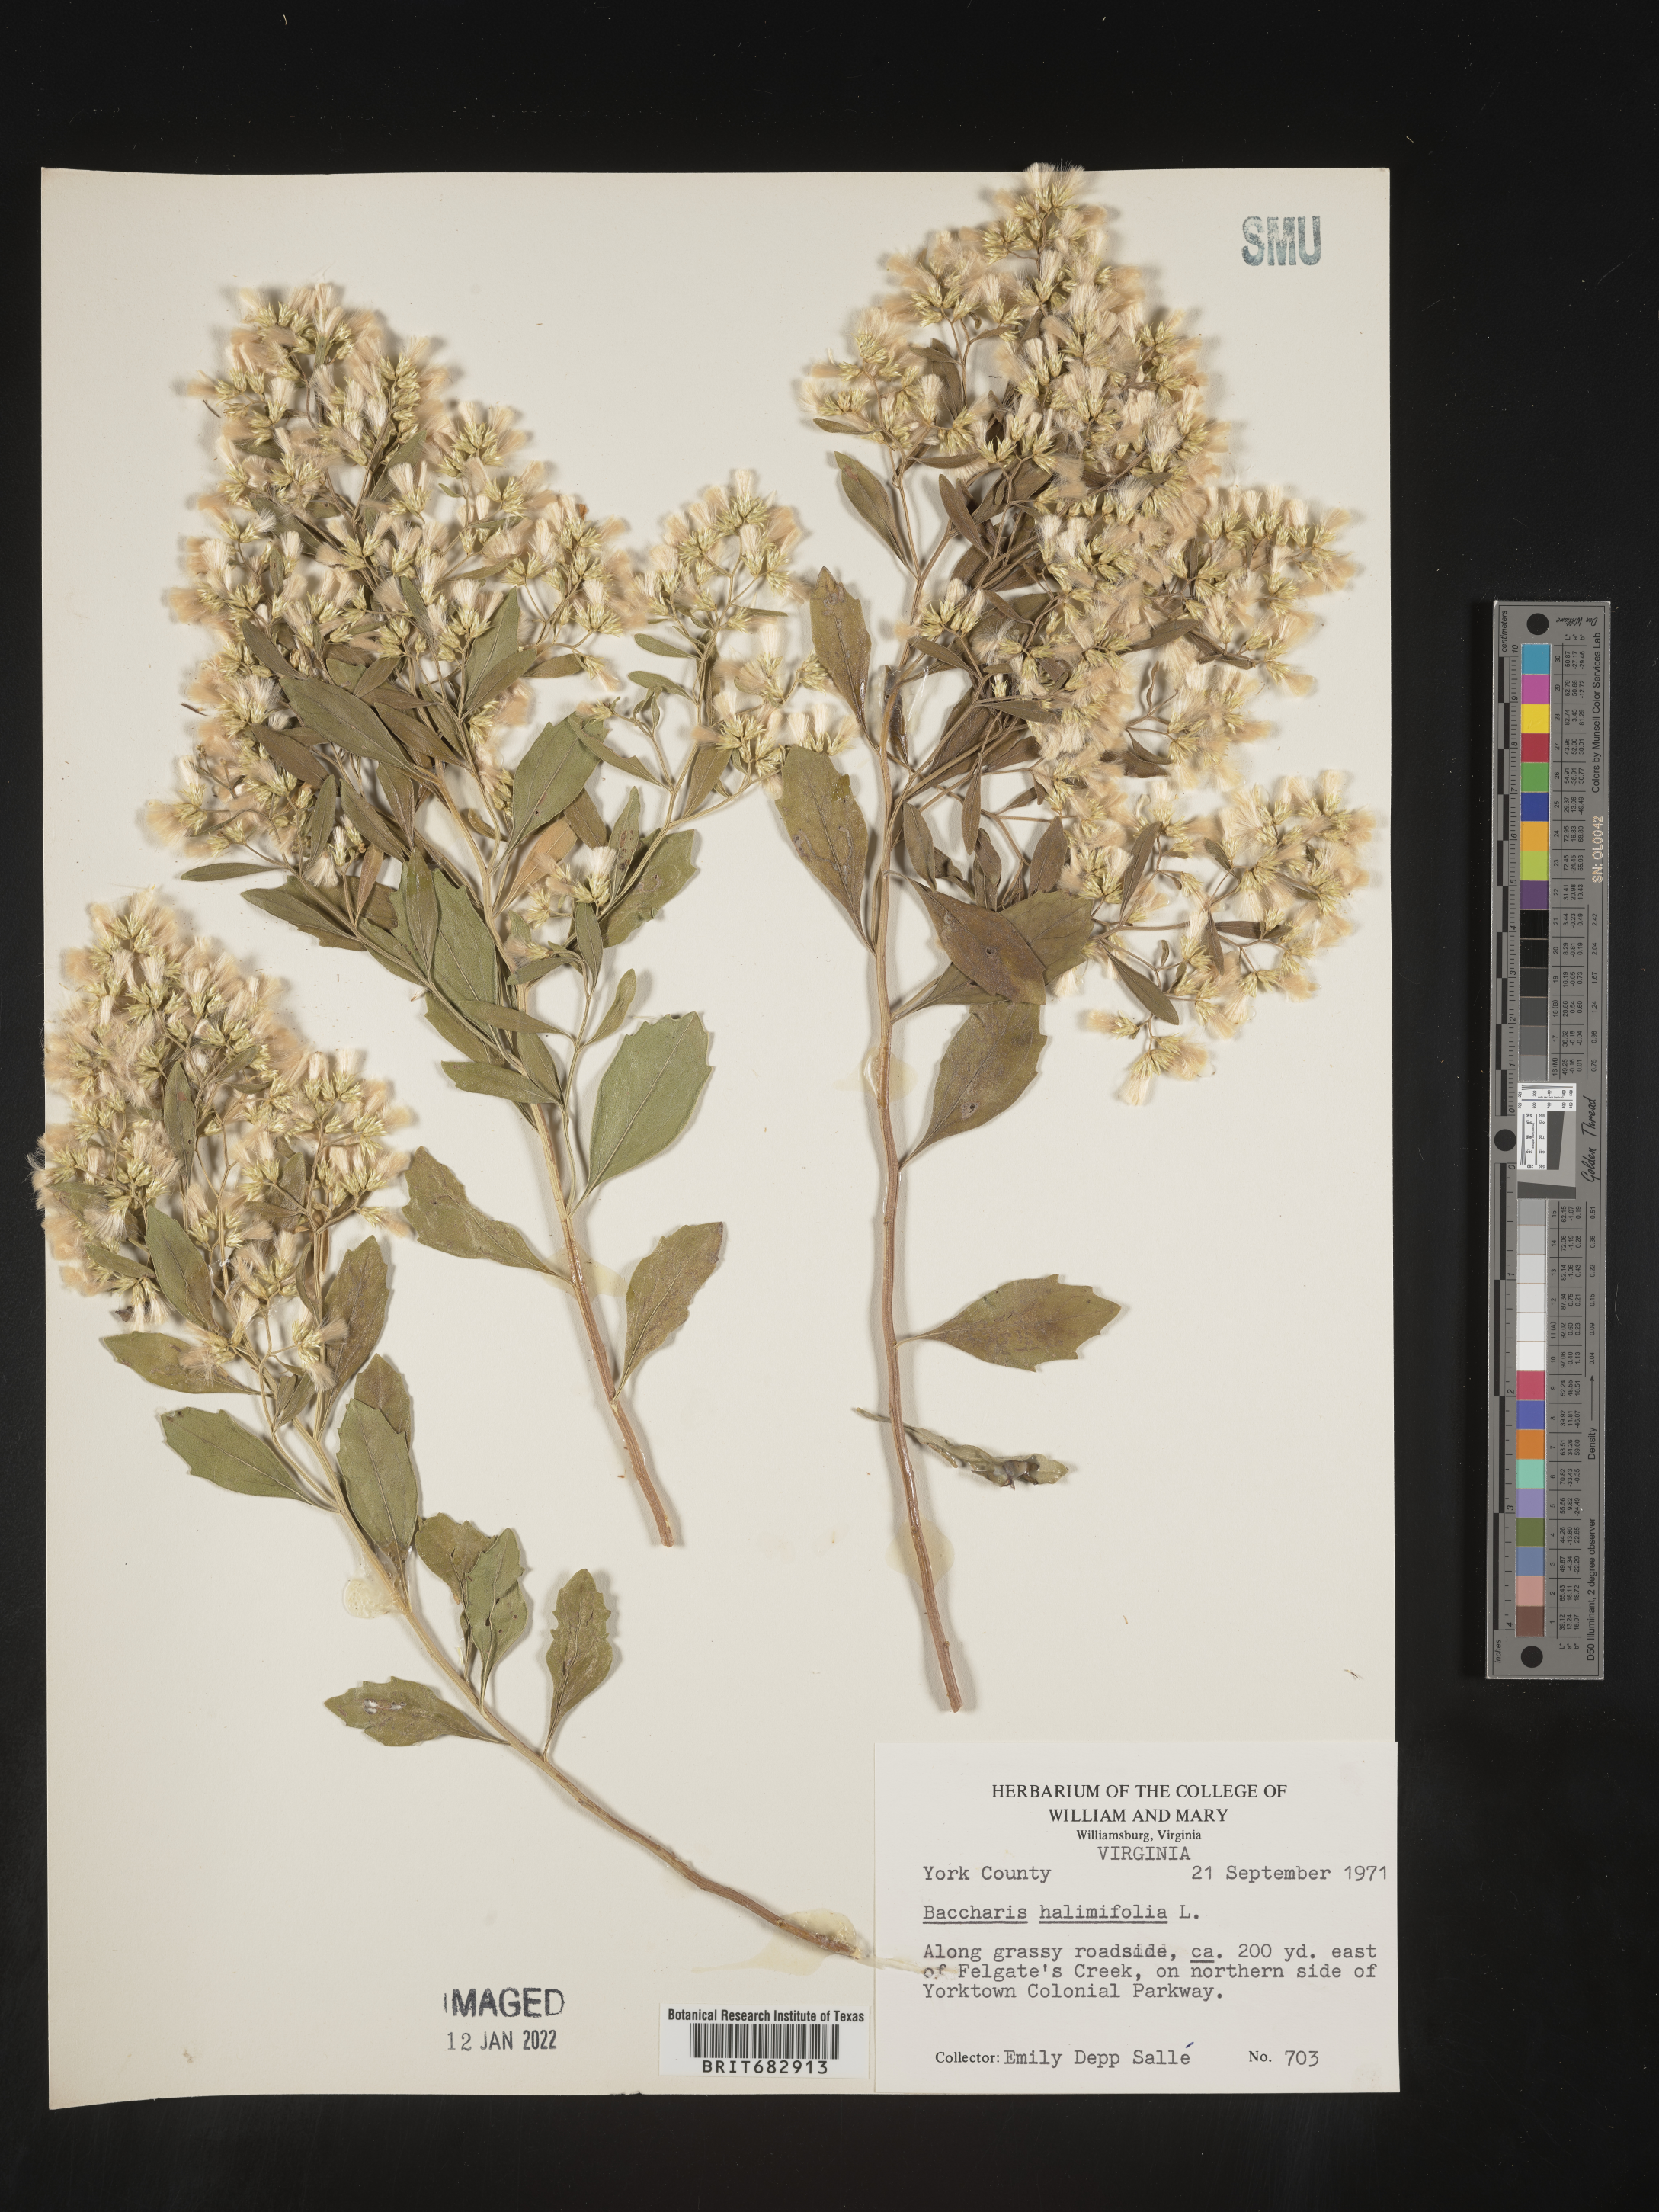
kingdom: Plantae
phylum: Tracheophyta
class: Magnoliopsida
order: Asterales
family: Asteraceae
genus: Nidorella
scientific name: Nidorella ivifolia
